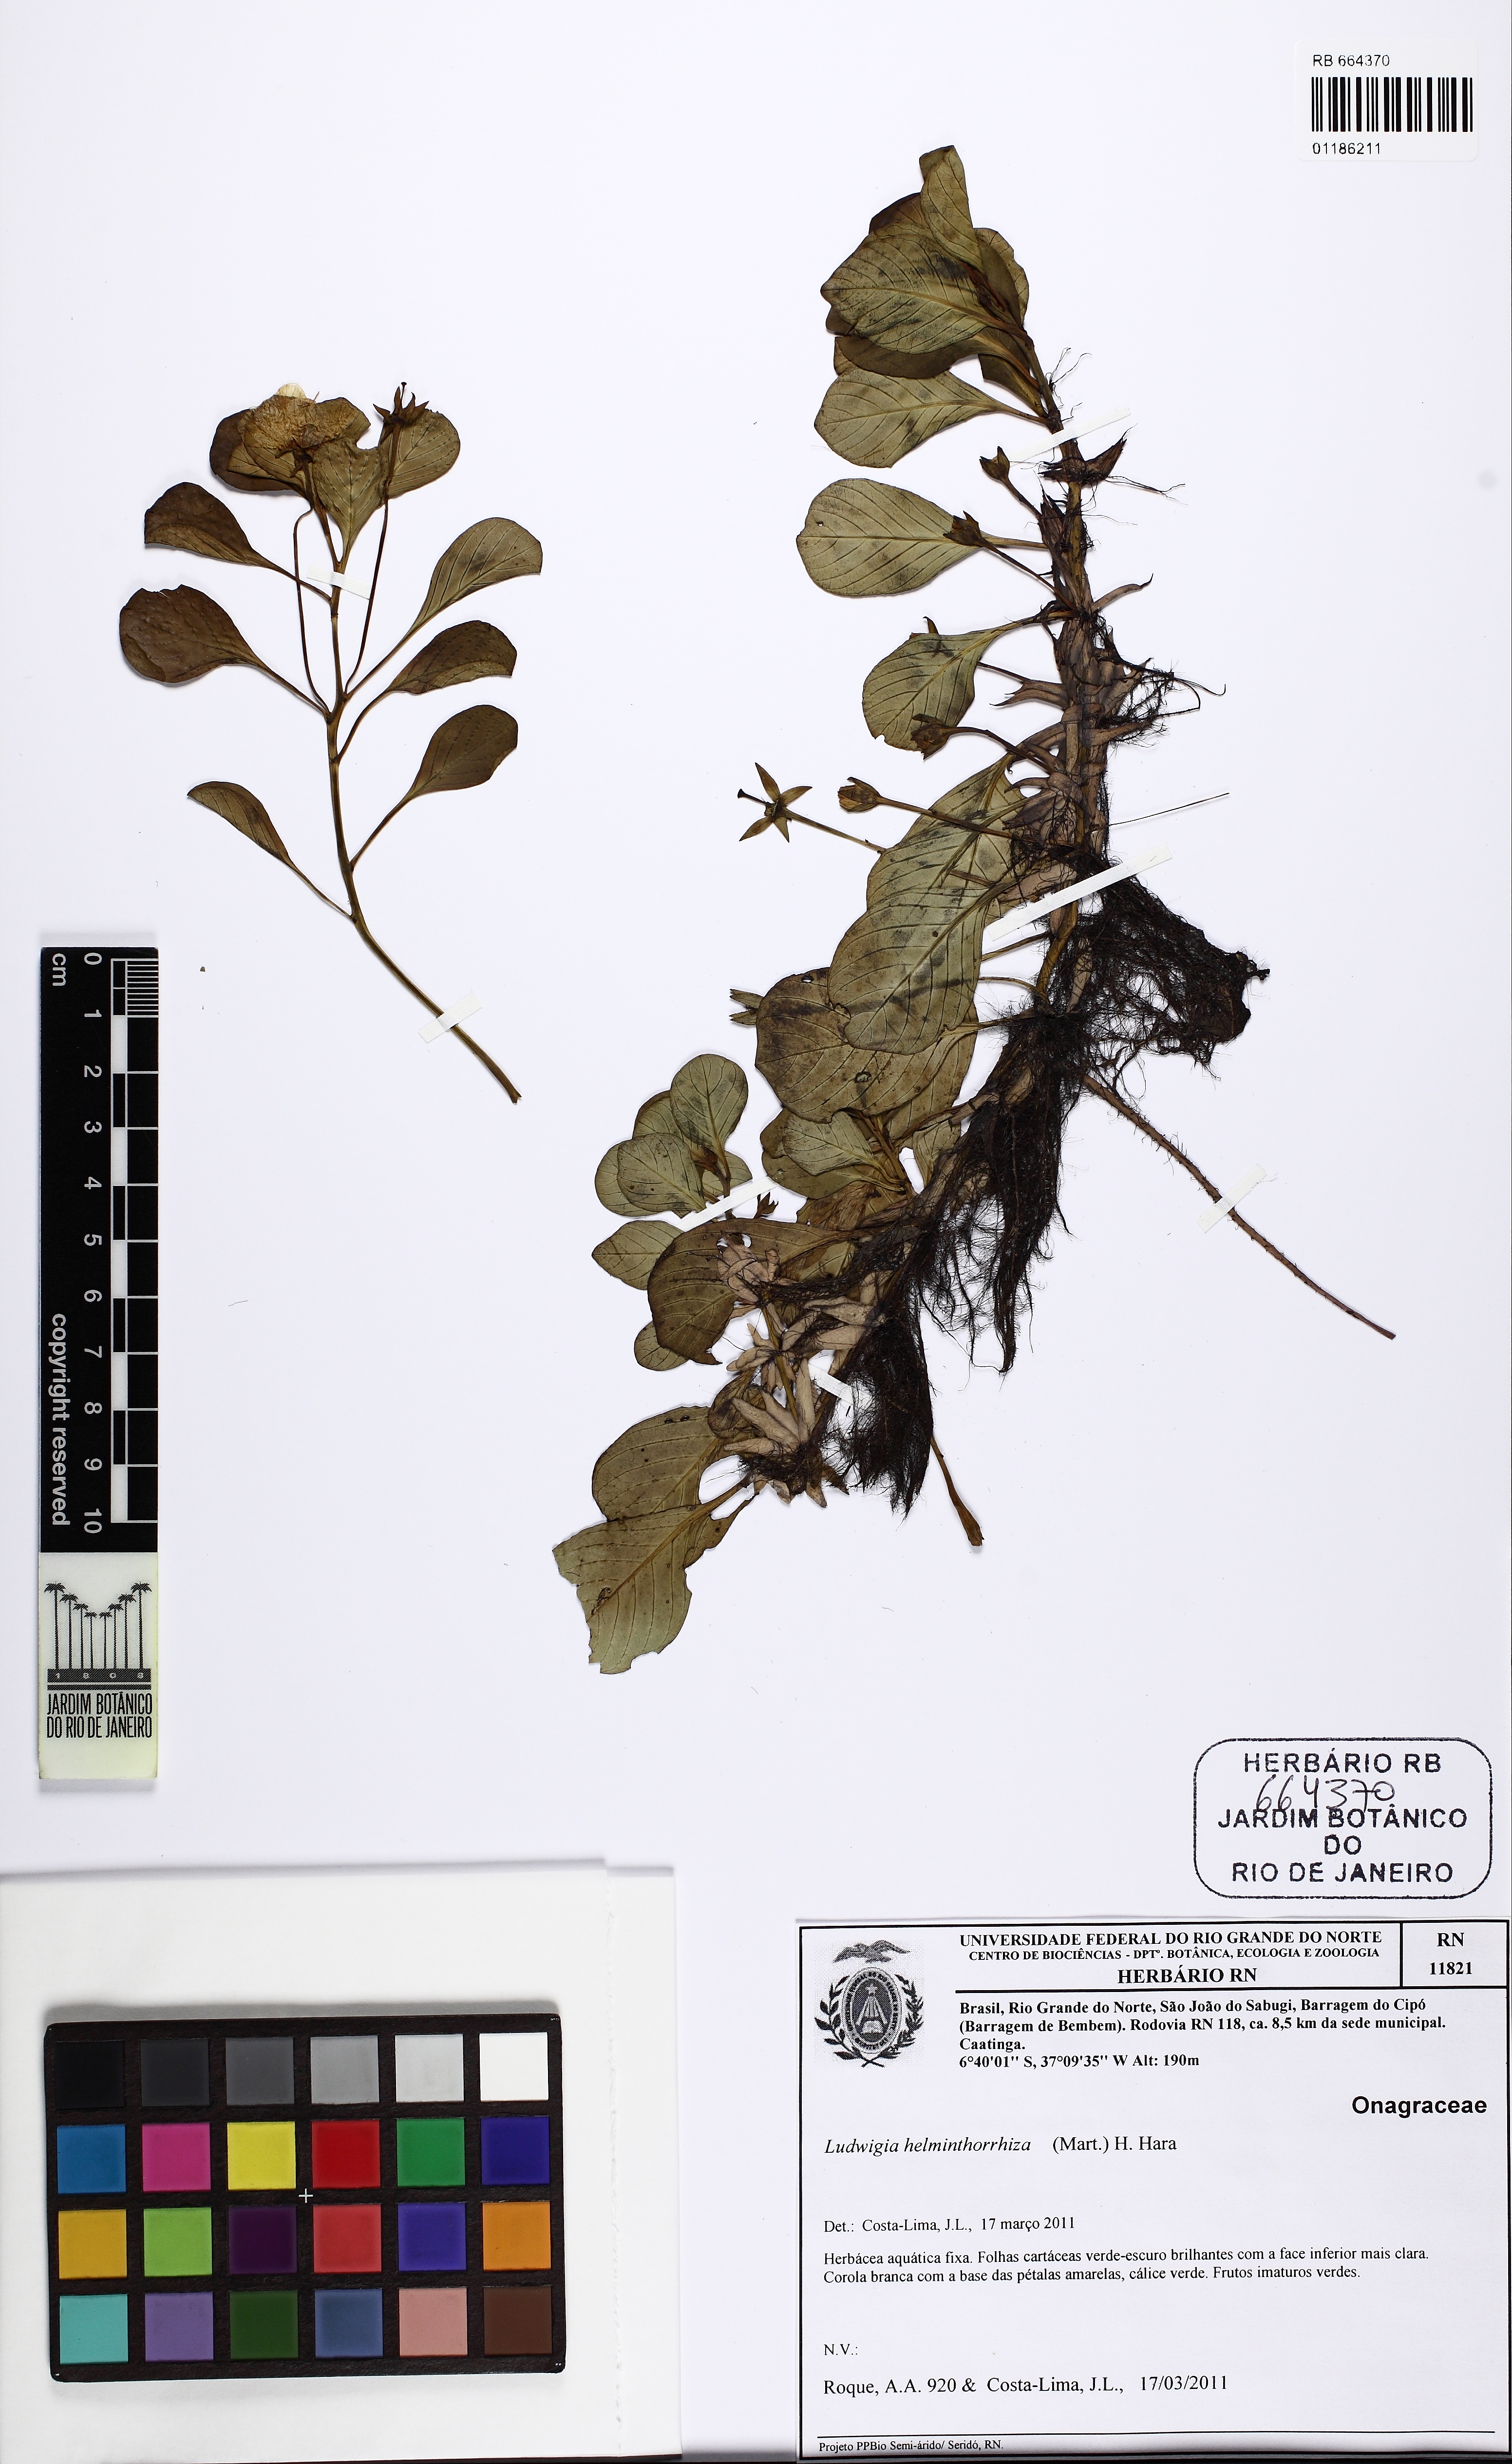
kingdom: Plantae
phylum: Tracheophyta
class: Magnoliopsida
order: Myrtales
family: Onagraceae
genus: Ludwigia
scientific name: Ludwigia helminthorrhiza
